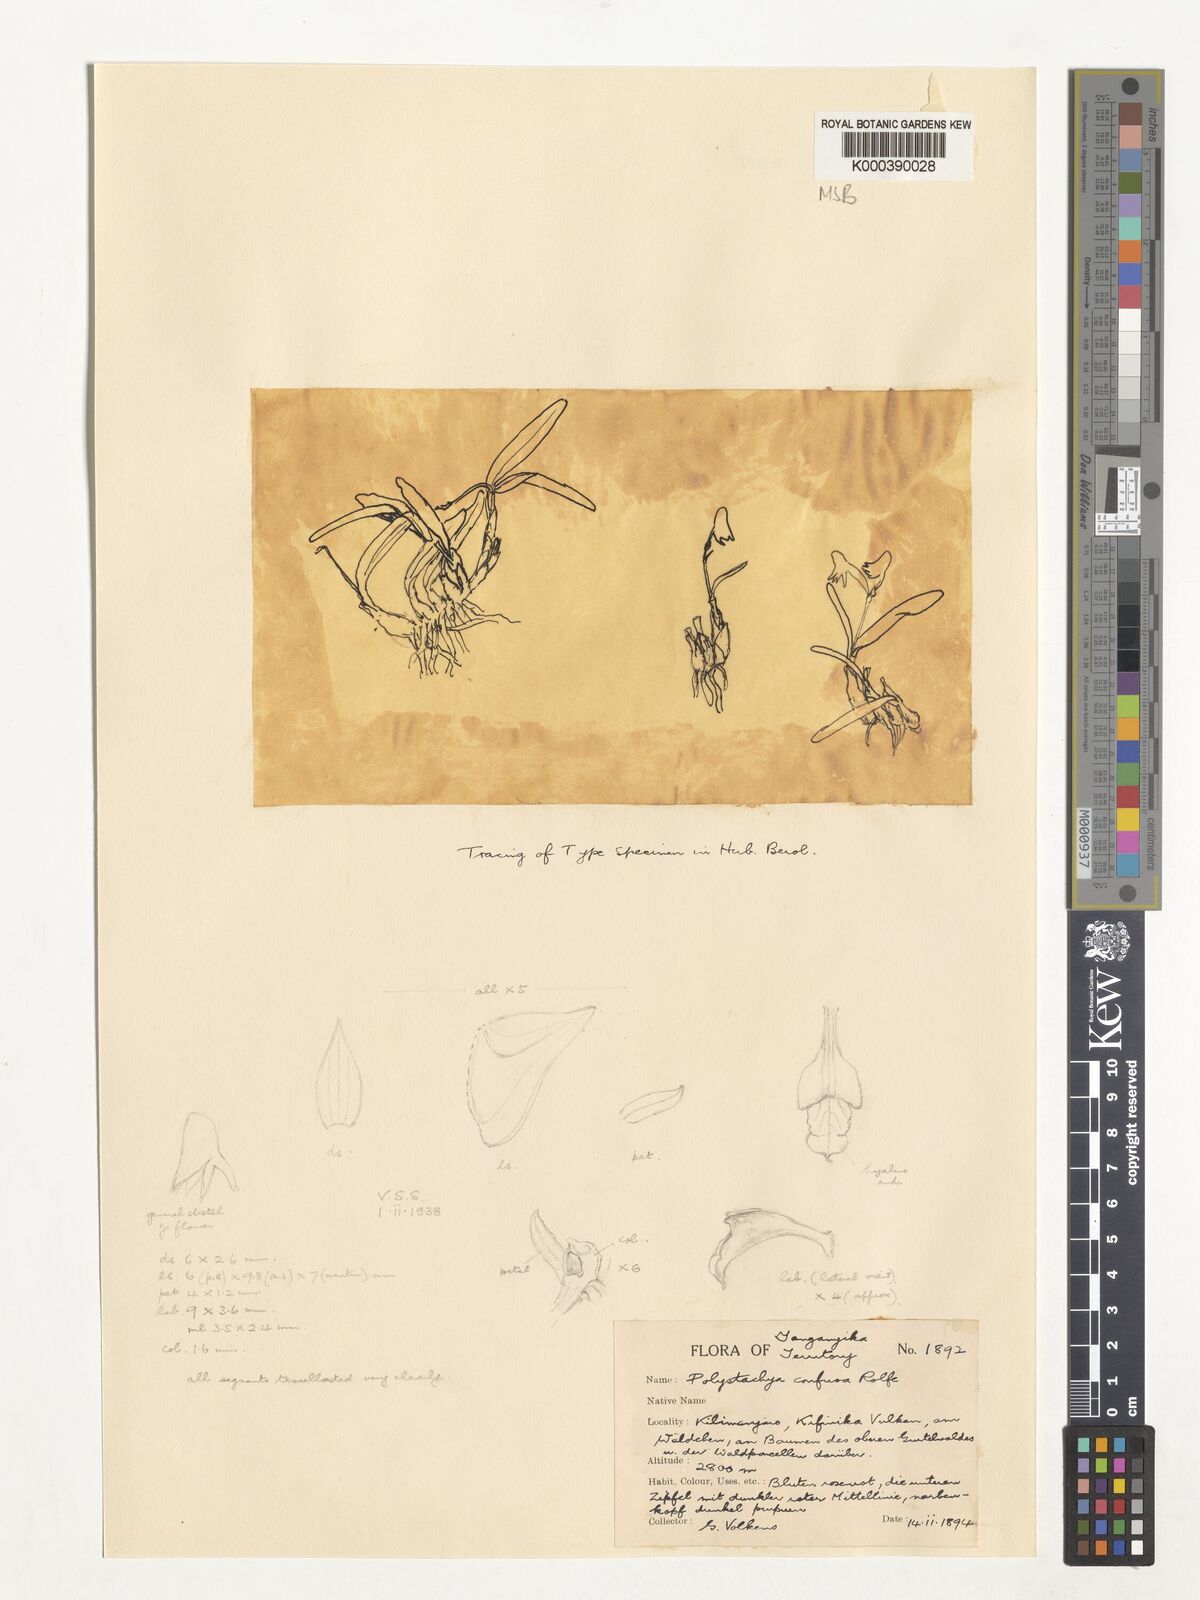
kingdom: Plantae
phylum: Tracheophyta
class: Liliopsida
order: Asparagales
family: Orchidaceae
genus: Polystachya
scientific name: Polystachya confusa
